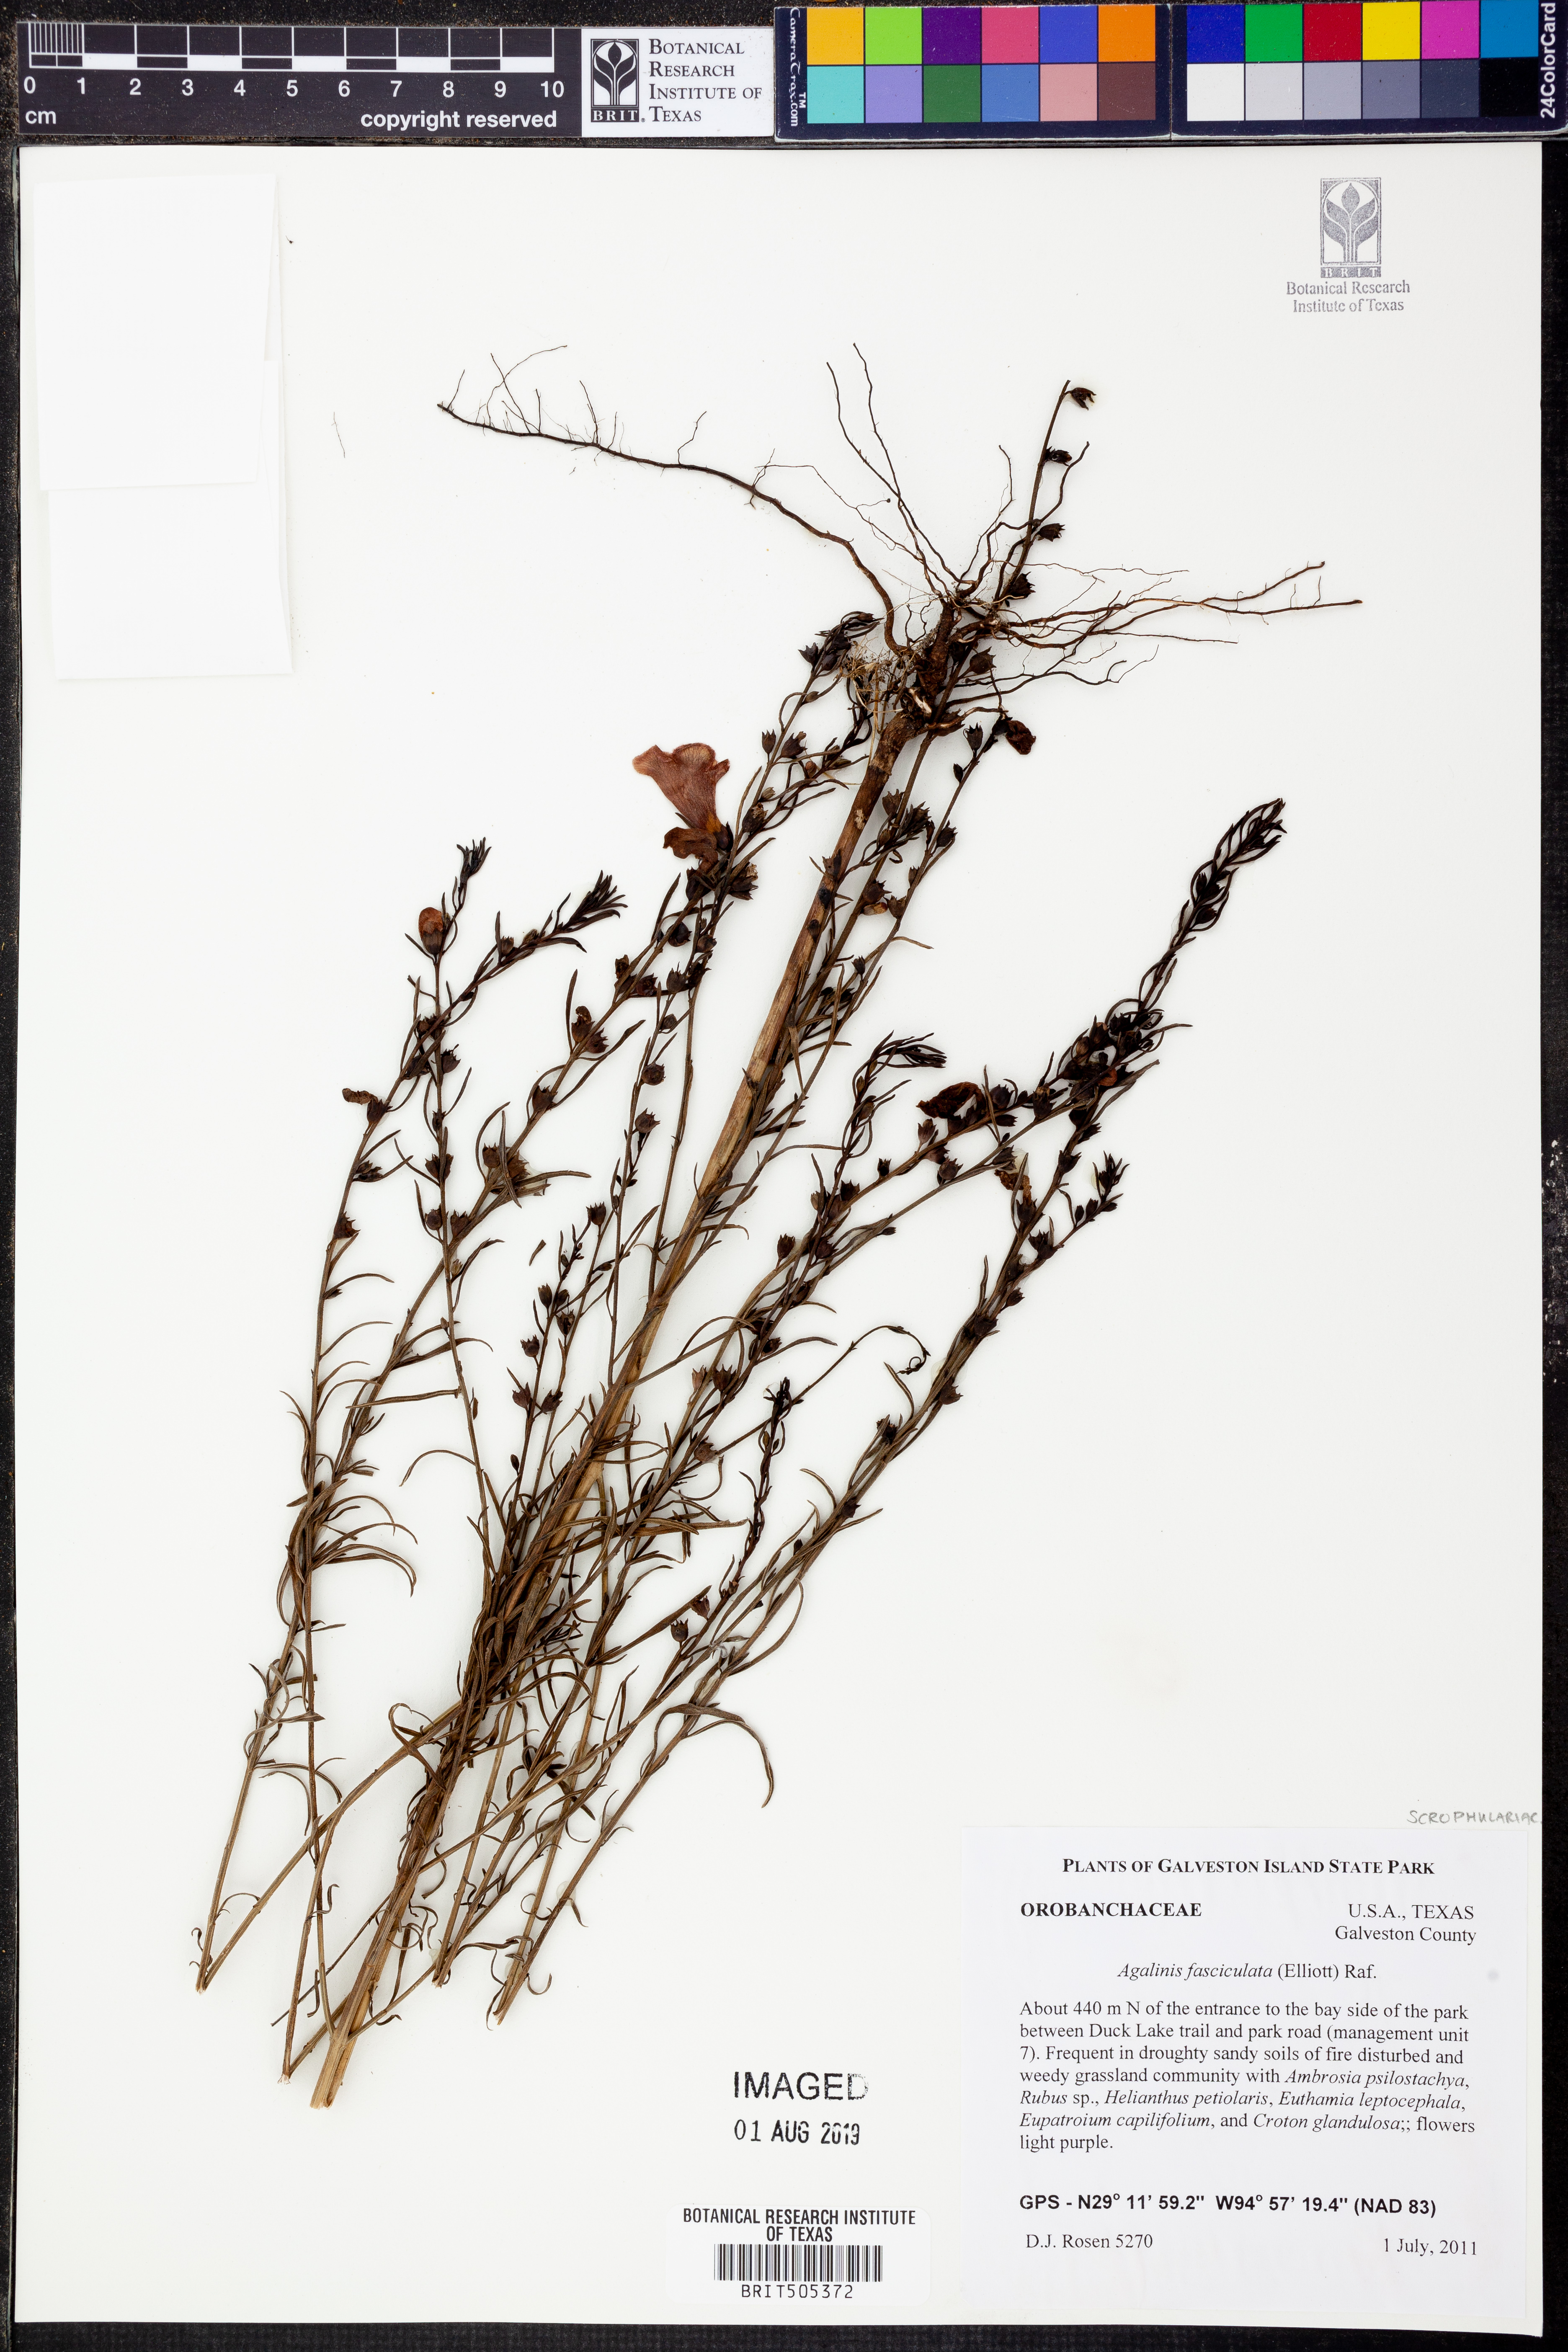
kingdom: Plantae
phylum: Tracheophyta
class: Magnoliopsida
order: Lamiales
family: Orobanchaceae
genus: Agalinis
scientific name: Agalinis fasciculata
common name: Beach false foxglove
